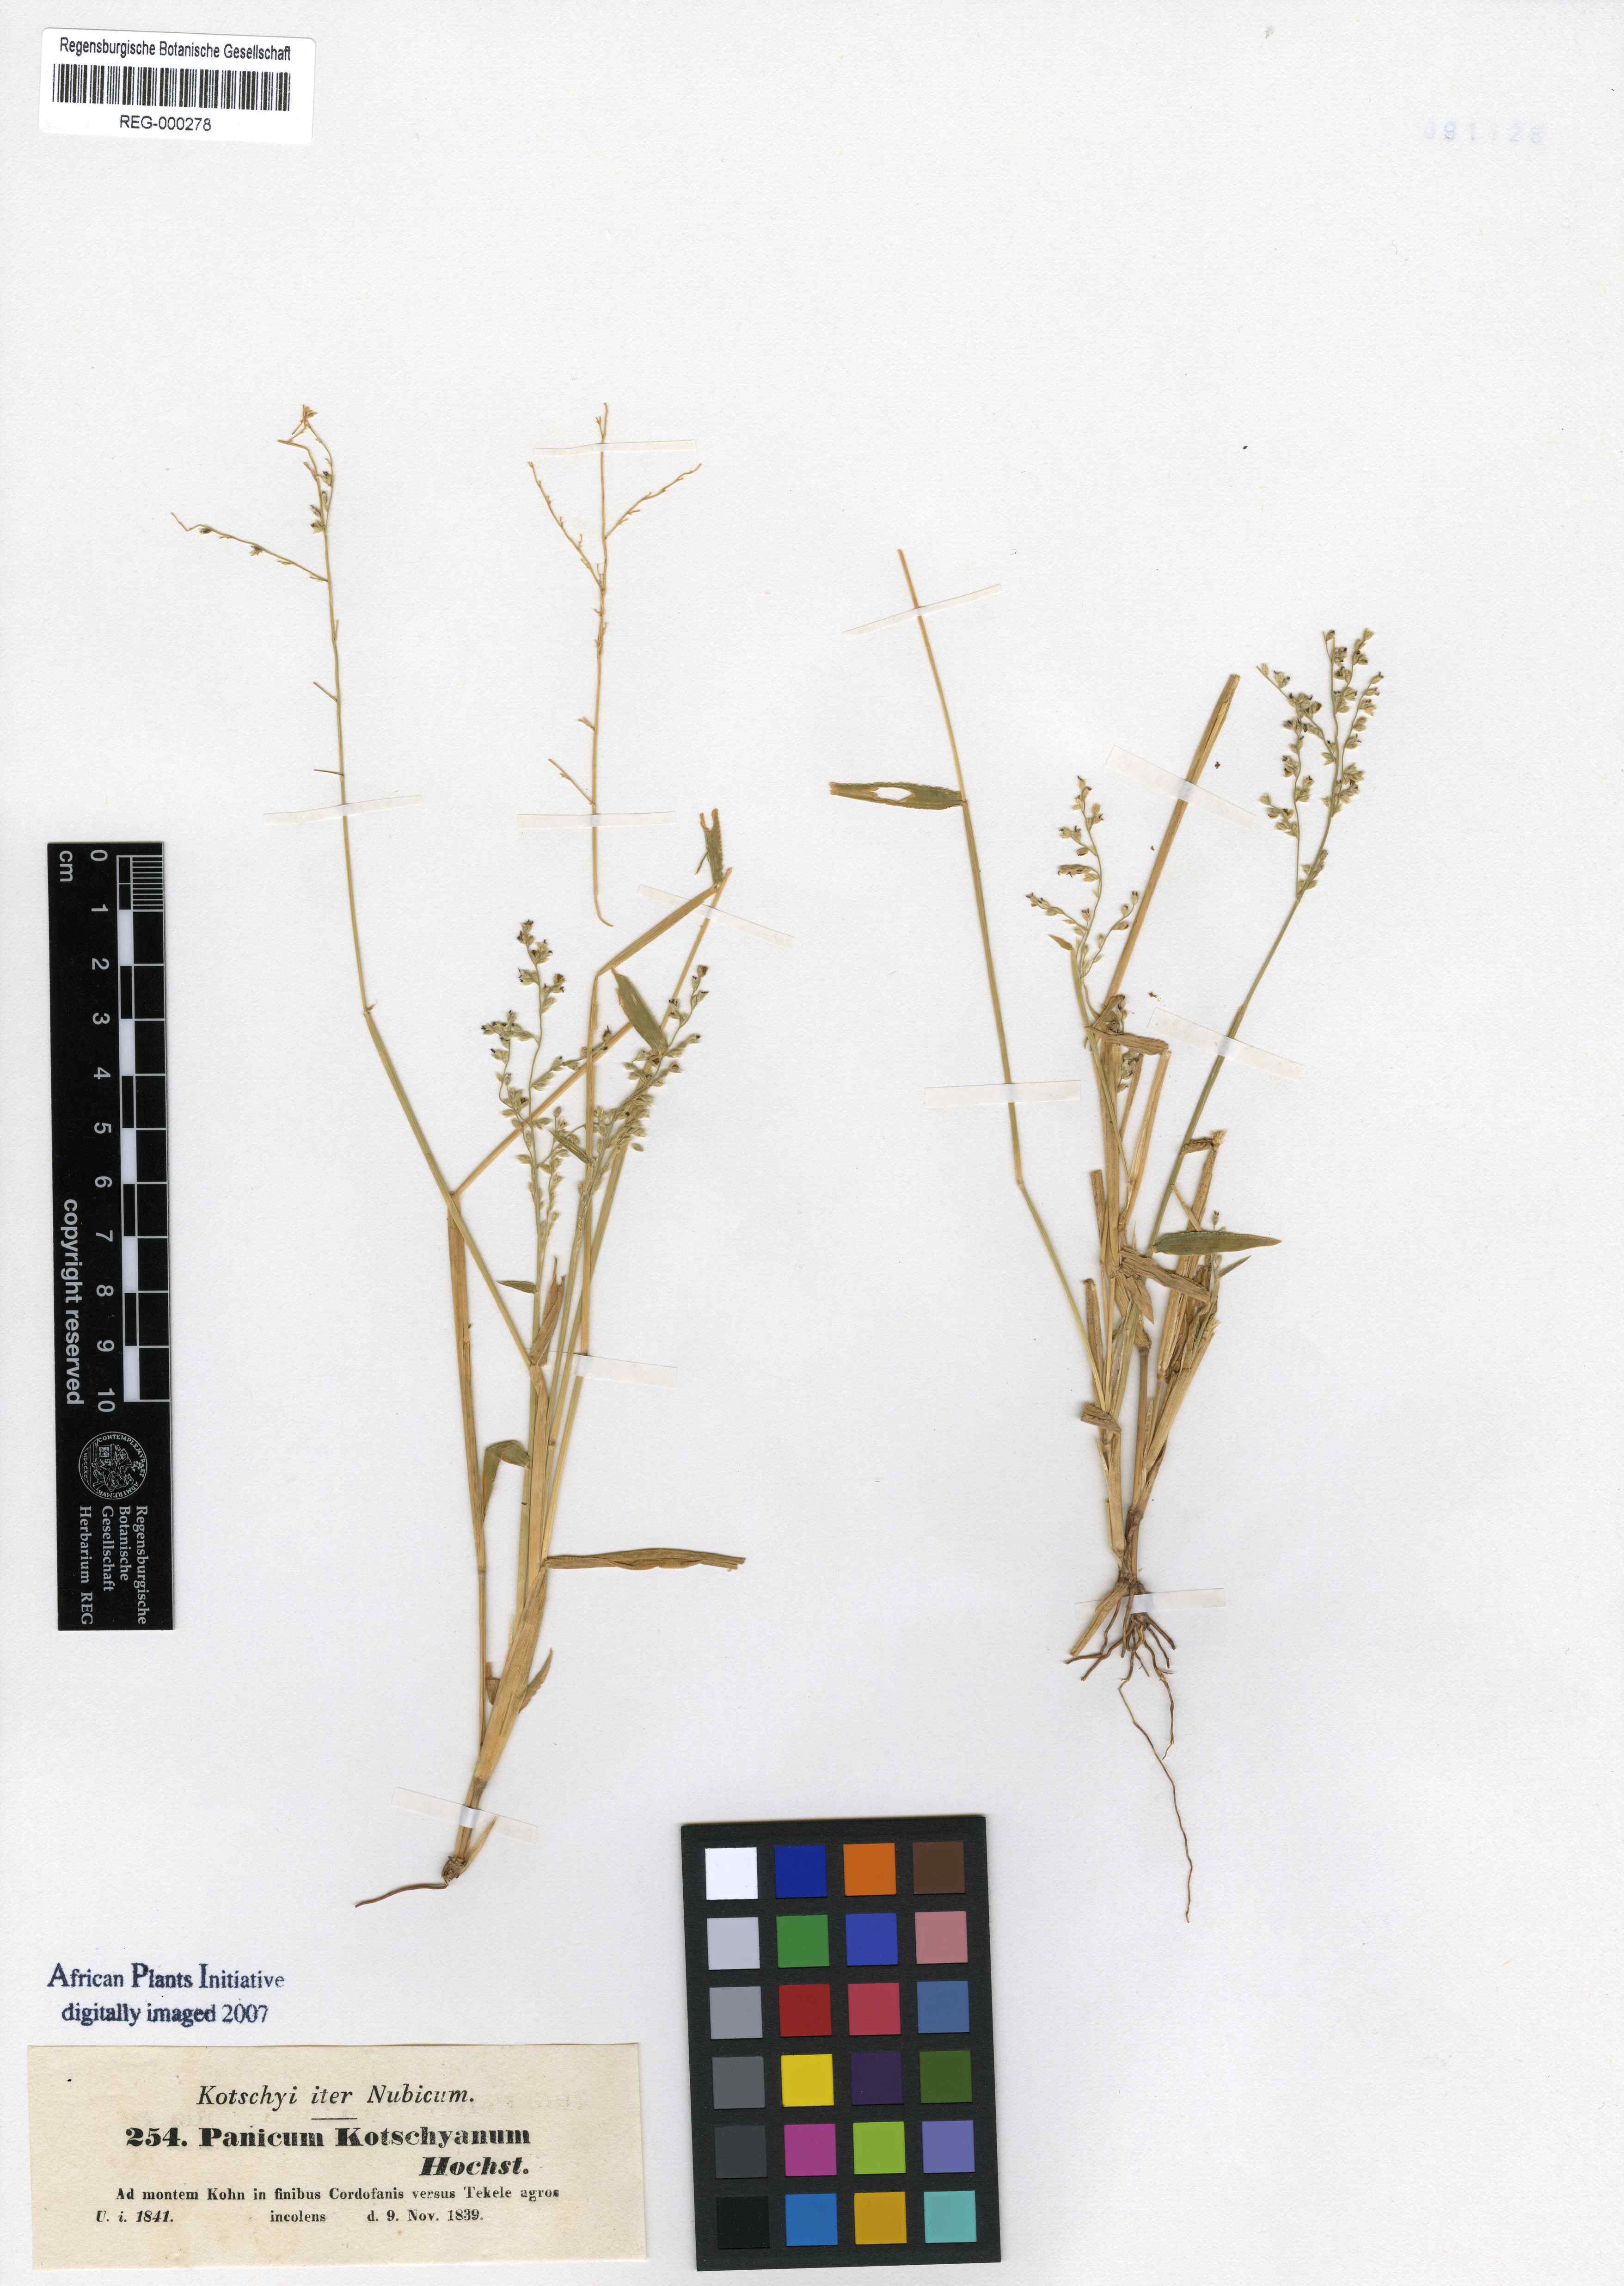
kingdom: Plantae
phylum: Tracheophyta
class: Liliopsida
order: Poales
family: Poaceae
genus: Urochloa
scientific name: Urochloa comata
